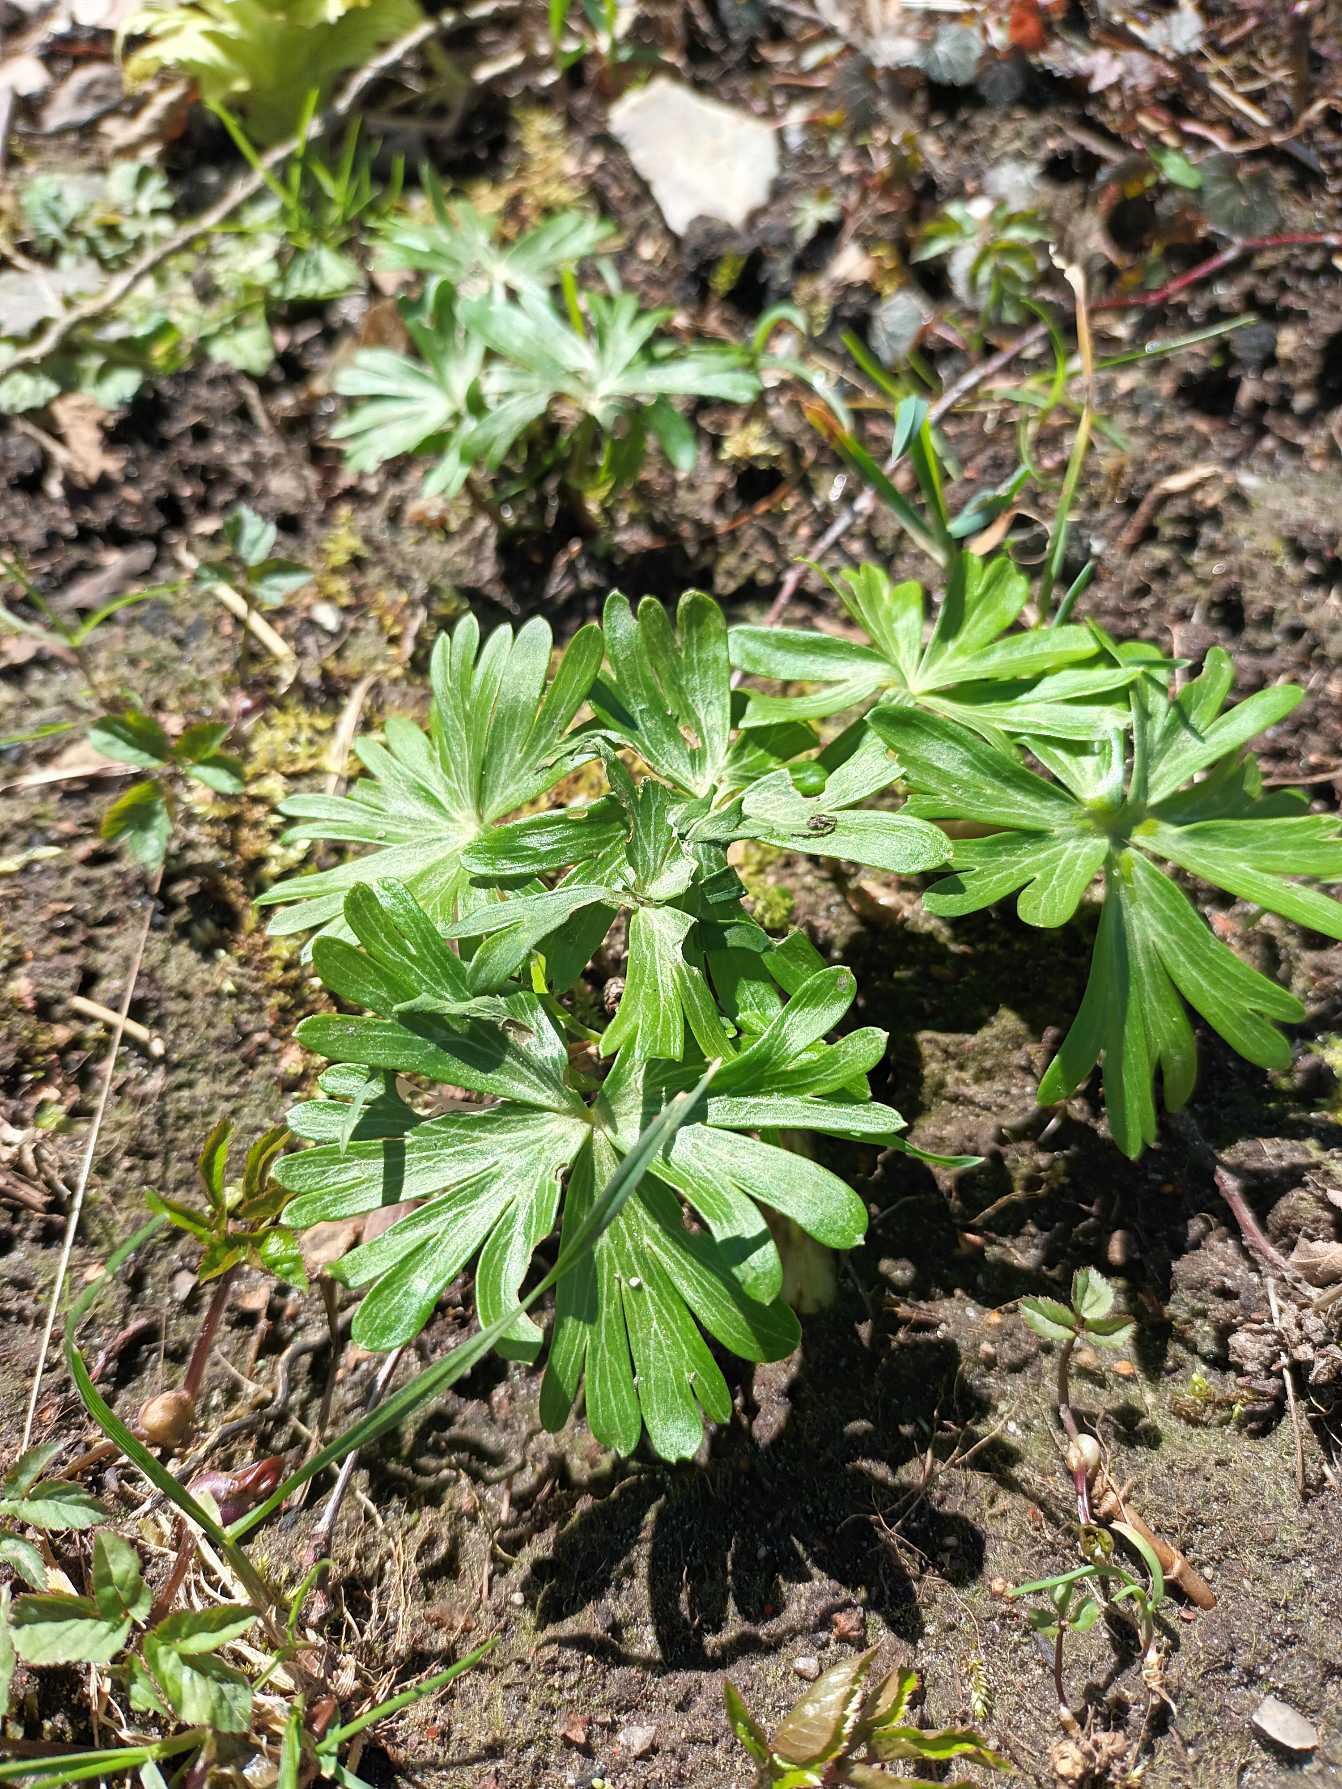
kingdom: Plantae
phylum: Tracheophyta
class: Magnoliopsida
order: Ranunculales
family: Ranunculaceae
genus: Eranthis
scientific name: Eranthis hyemalis
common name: Erantis
